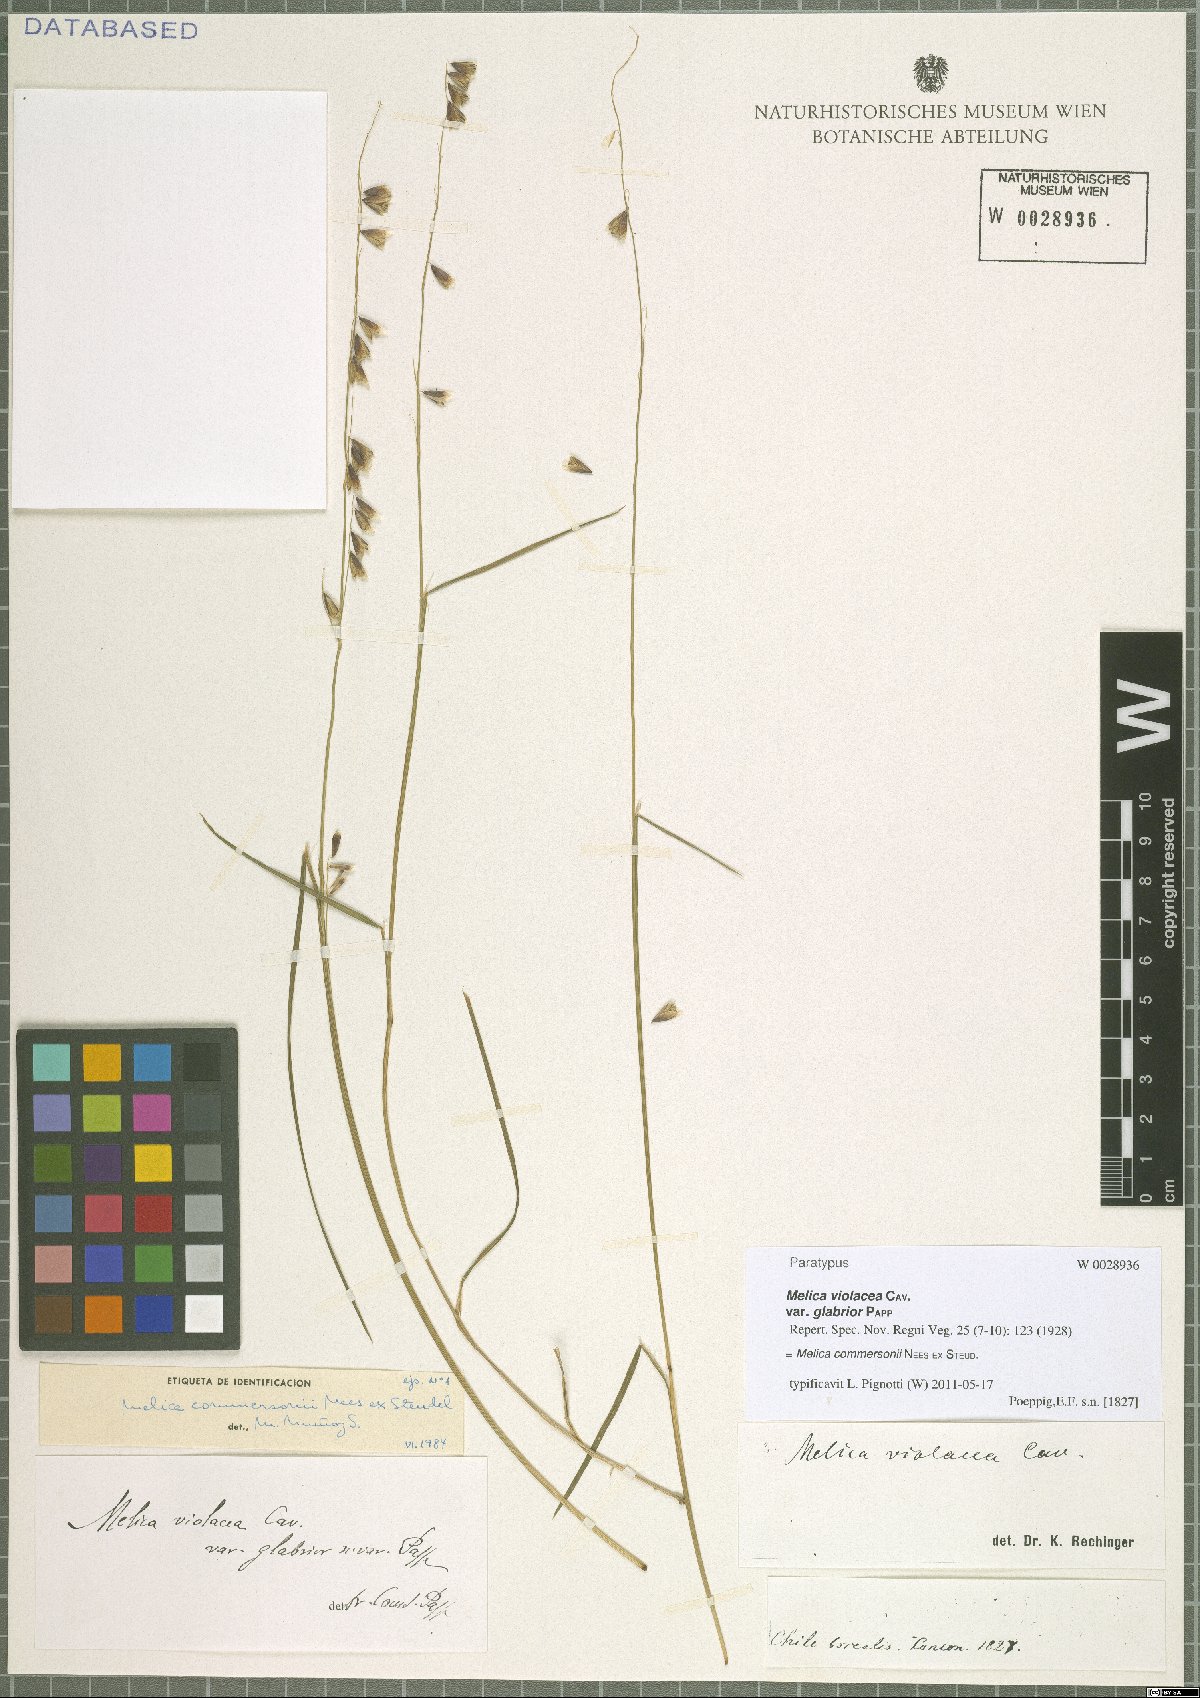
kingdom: Plantae
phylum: Tracheophyta
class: Liliopsida
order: Poales
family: Poaceae
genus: Melica
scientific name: Melica commersonii
